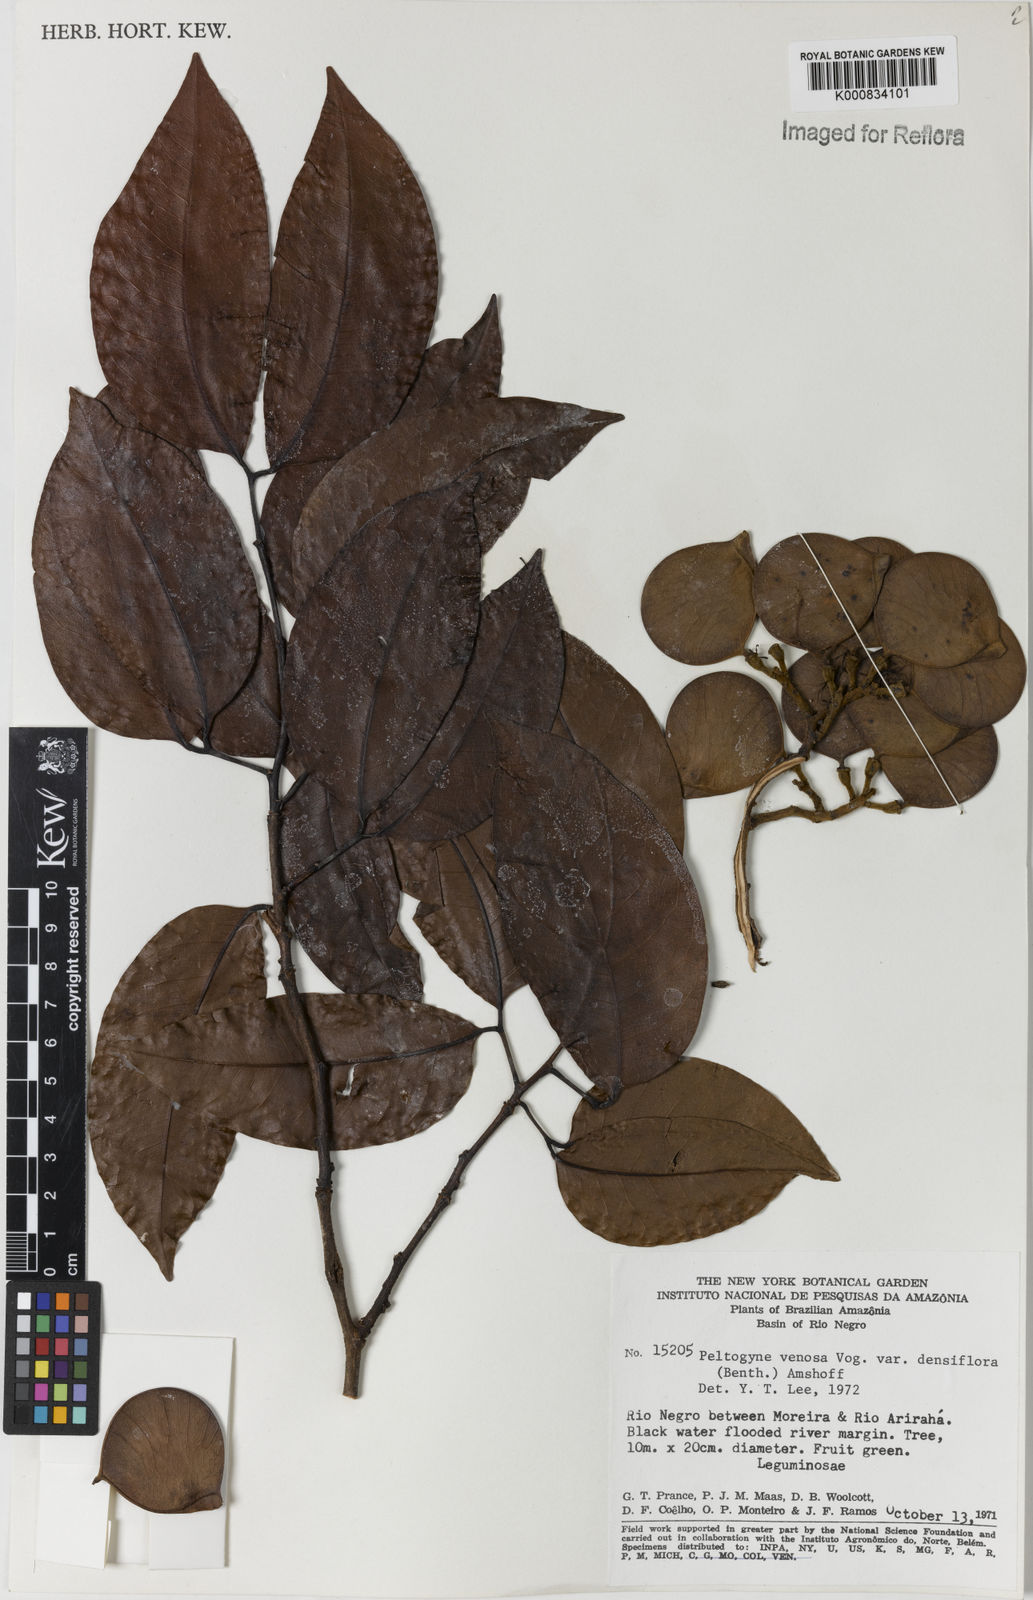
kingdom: Plantae
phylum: Tracheophyta
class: Magnoliopsida
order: Fabales
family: Fabaceae
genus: Peltogyne
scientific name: Peltogyne venosa
